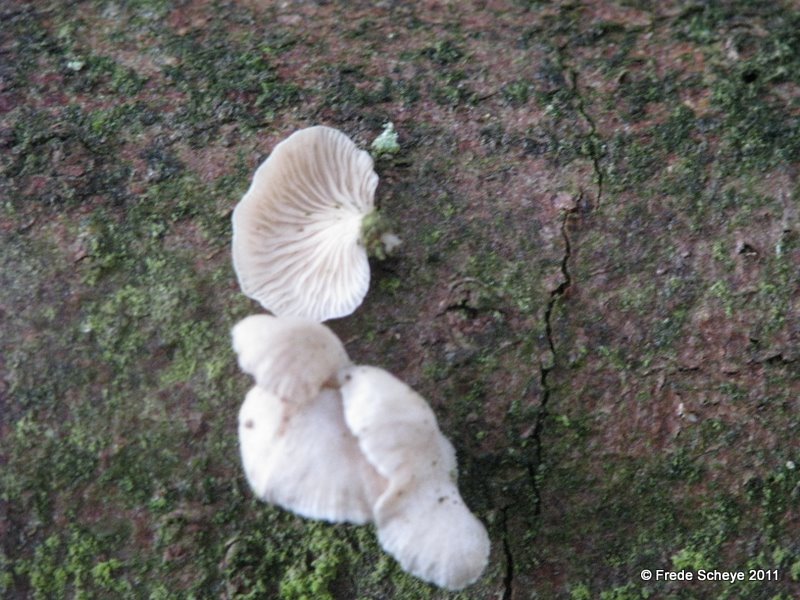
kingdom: Fungi
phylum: Basidiomycota
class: Agaricomycetes
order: Agaricales
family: Mycenaceae
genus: Panellus
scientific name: Panellus mitis
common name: mild epaulethat
